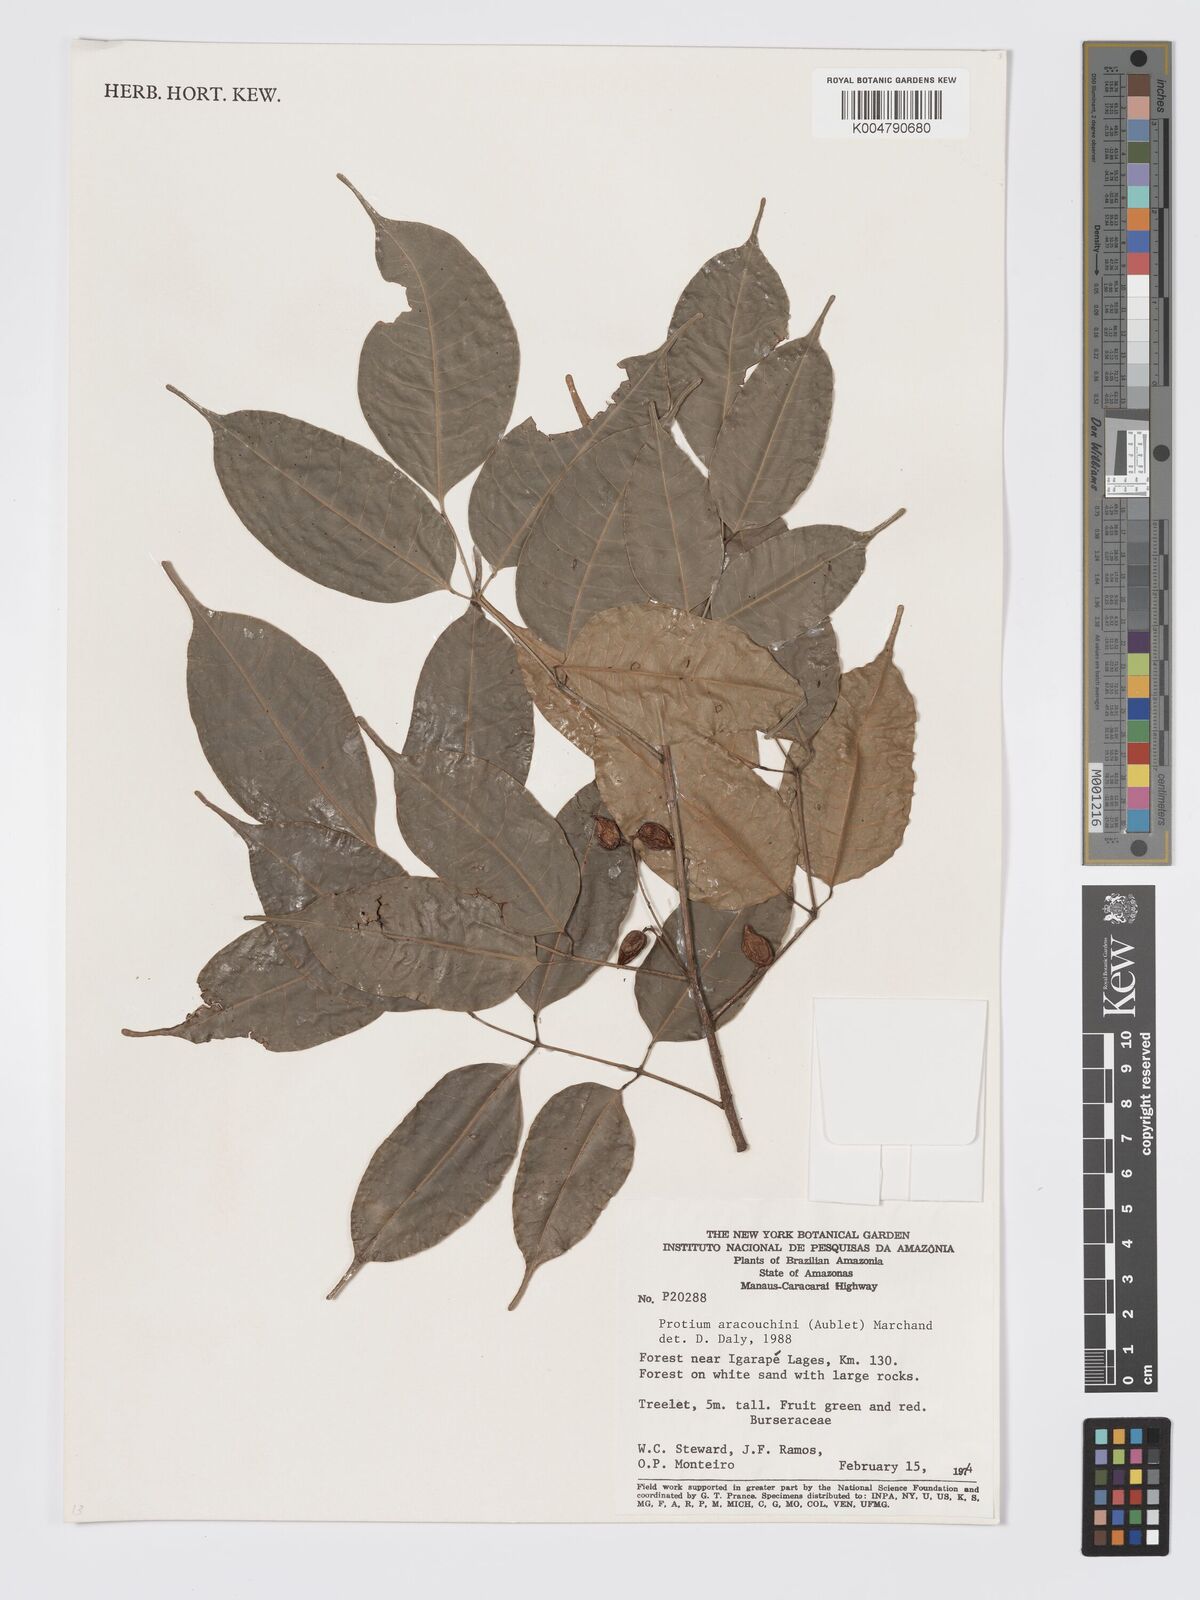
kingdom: Plantae
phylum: Tracheophyta
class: Magnoliopsida
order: Sapindales
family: Burseraceae
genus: Protium
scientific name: Protium aracouchini
